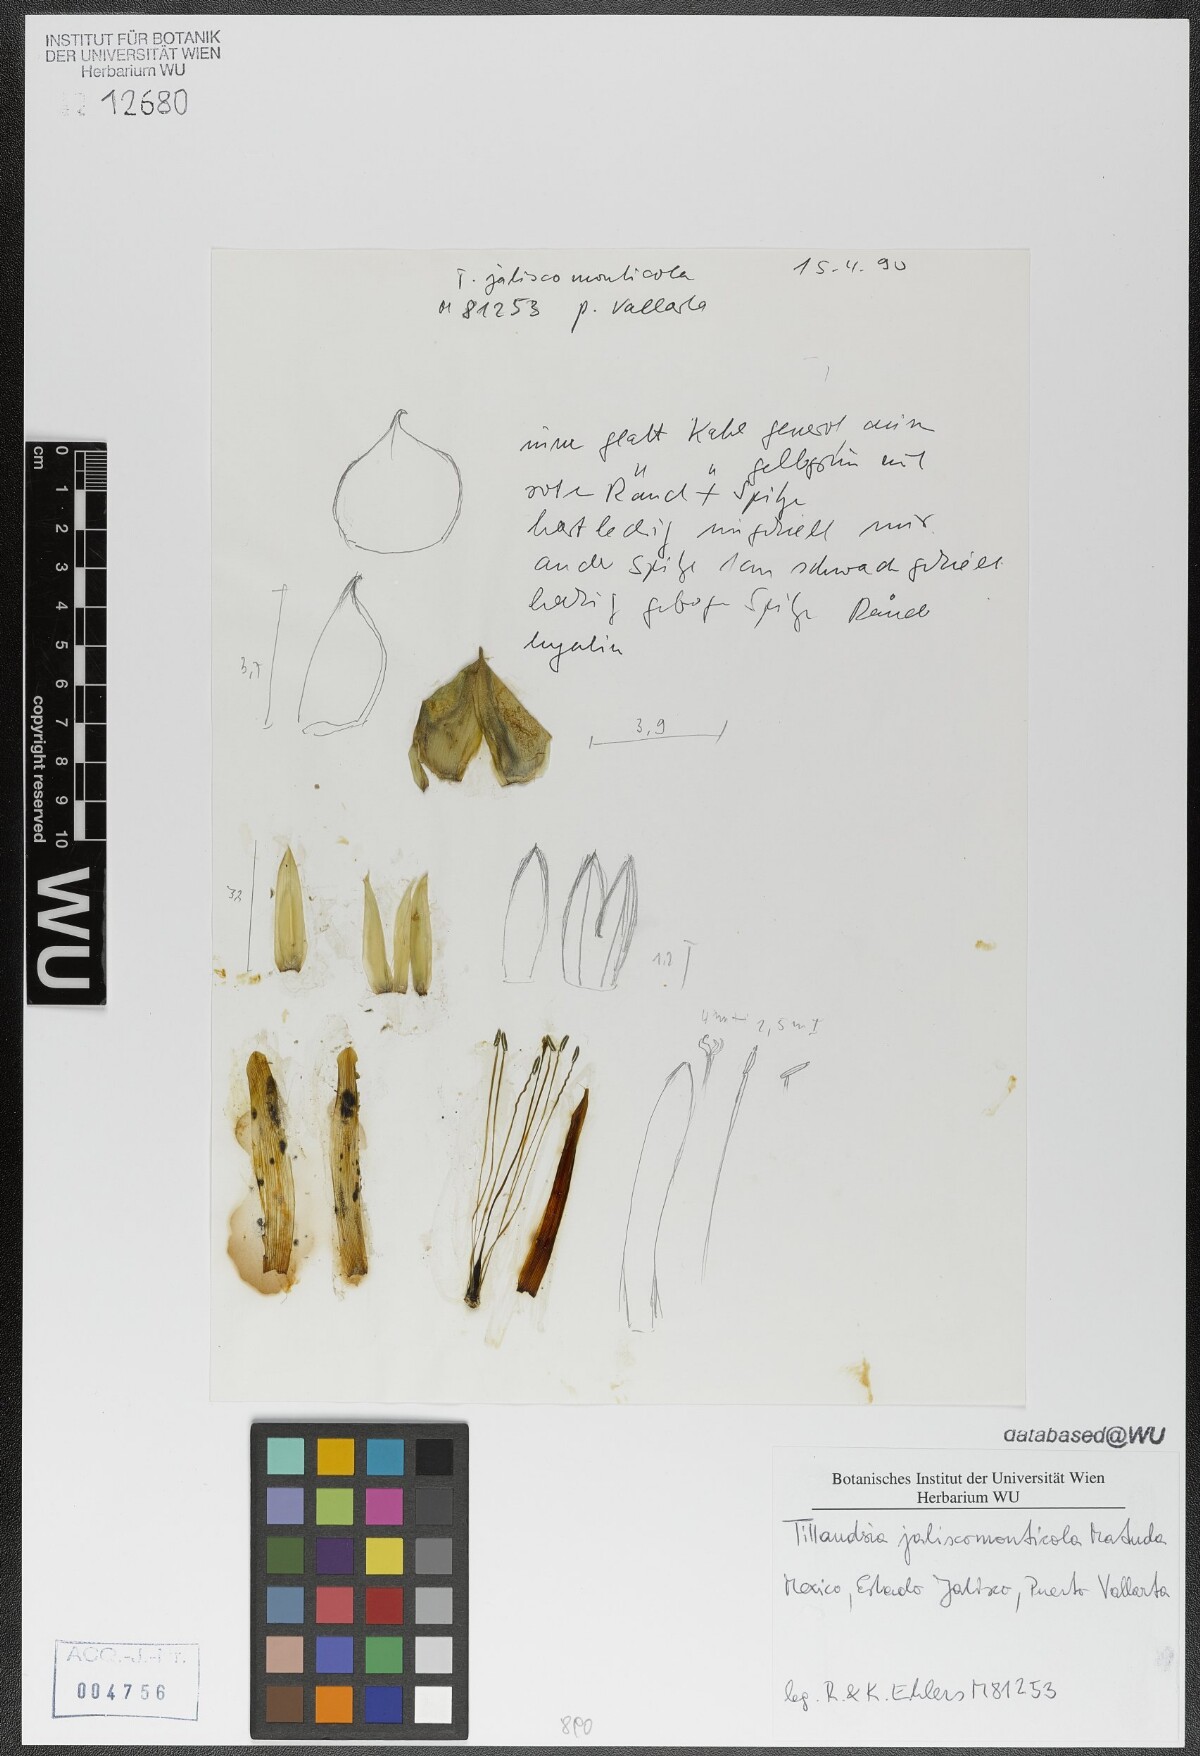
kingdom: Plantae
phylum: Tracheophyta
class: Liliopsida
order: Poales
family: Bromeliaceae
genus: Tillandsia
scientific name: Tillandsia compressa
